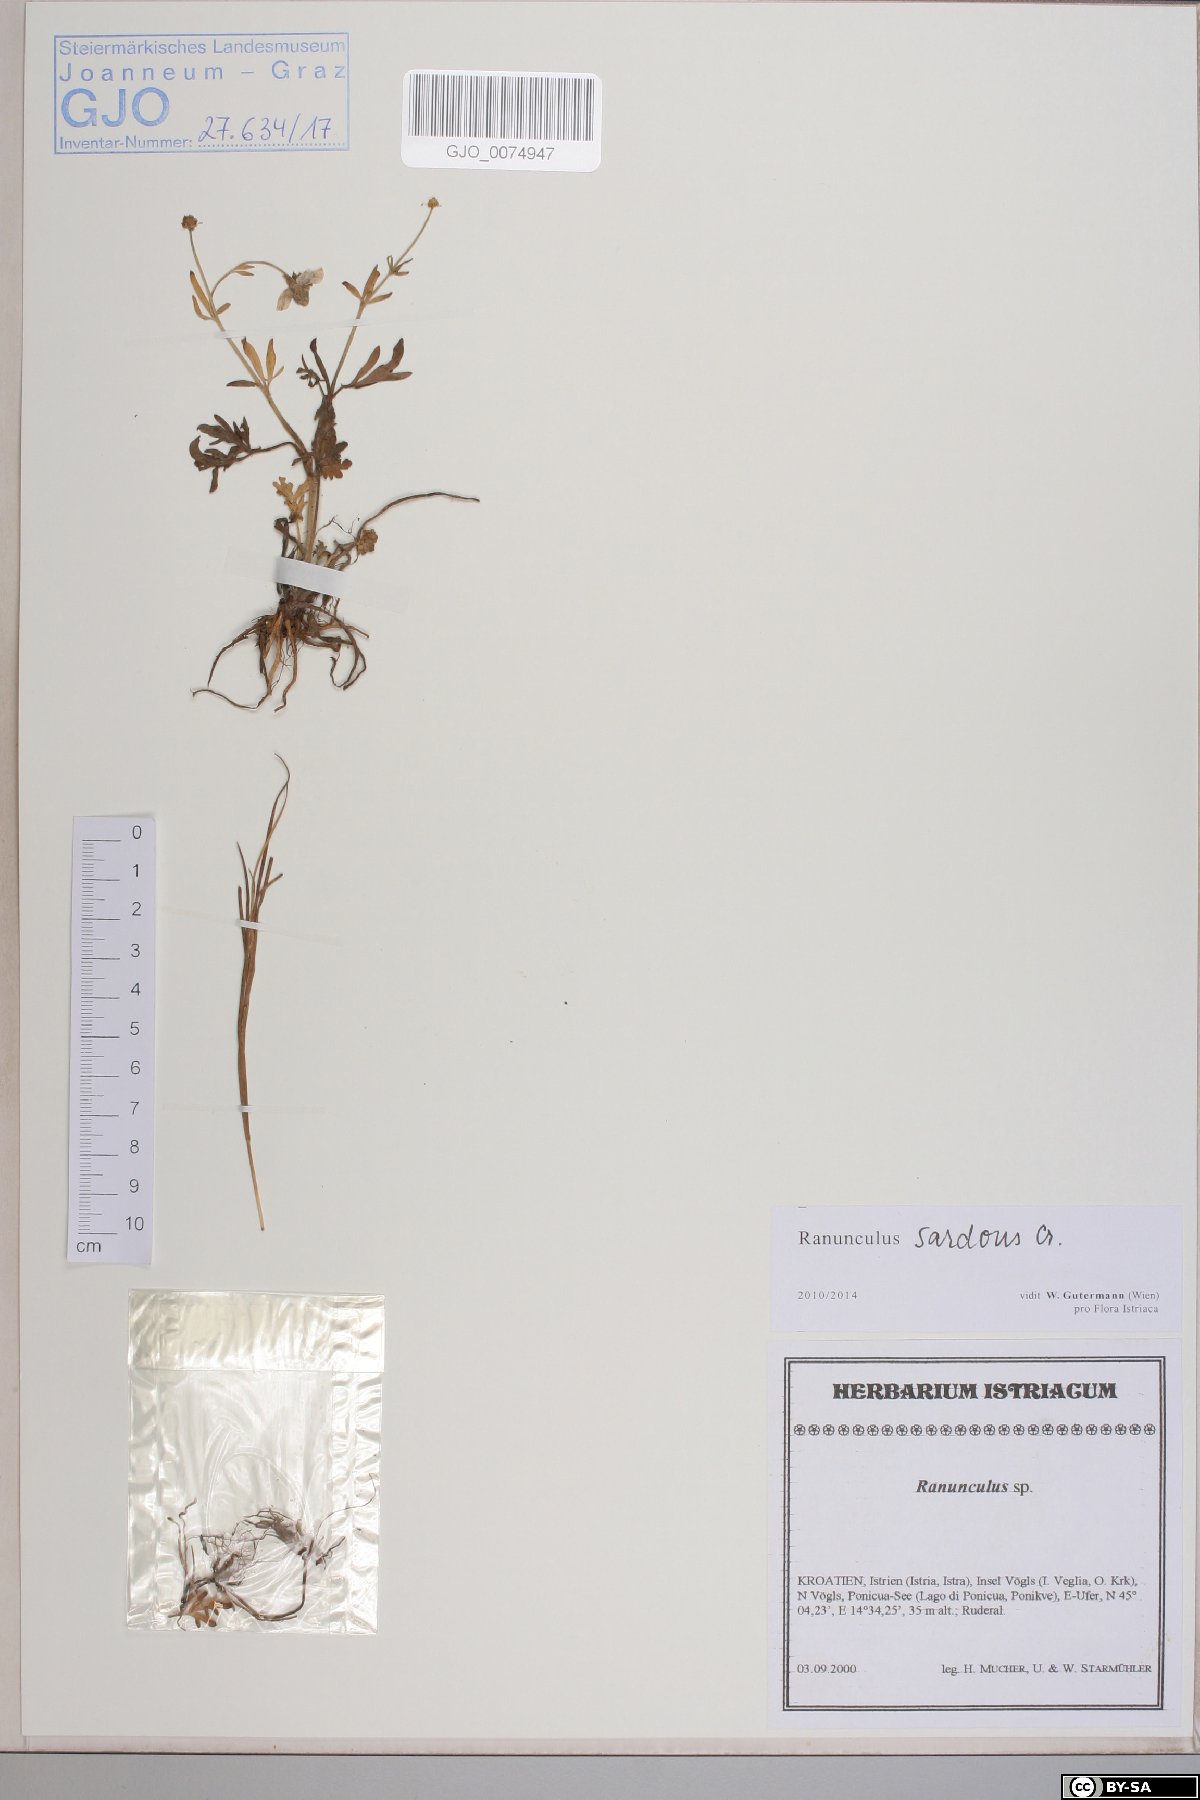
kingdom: Plantae
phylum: Tracheophyta
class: Magnoliopsida
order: Ranunculales
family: Ranunculaceae
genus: Ranunculus
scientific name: Ranunculus sardous
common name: Hairy buttercup
